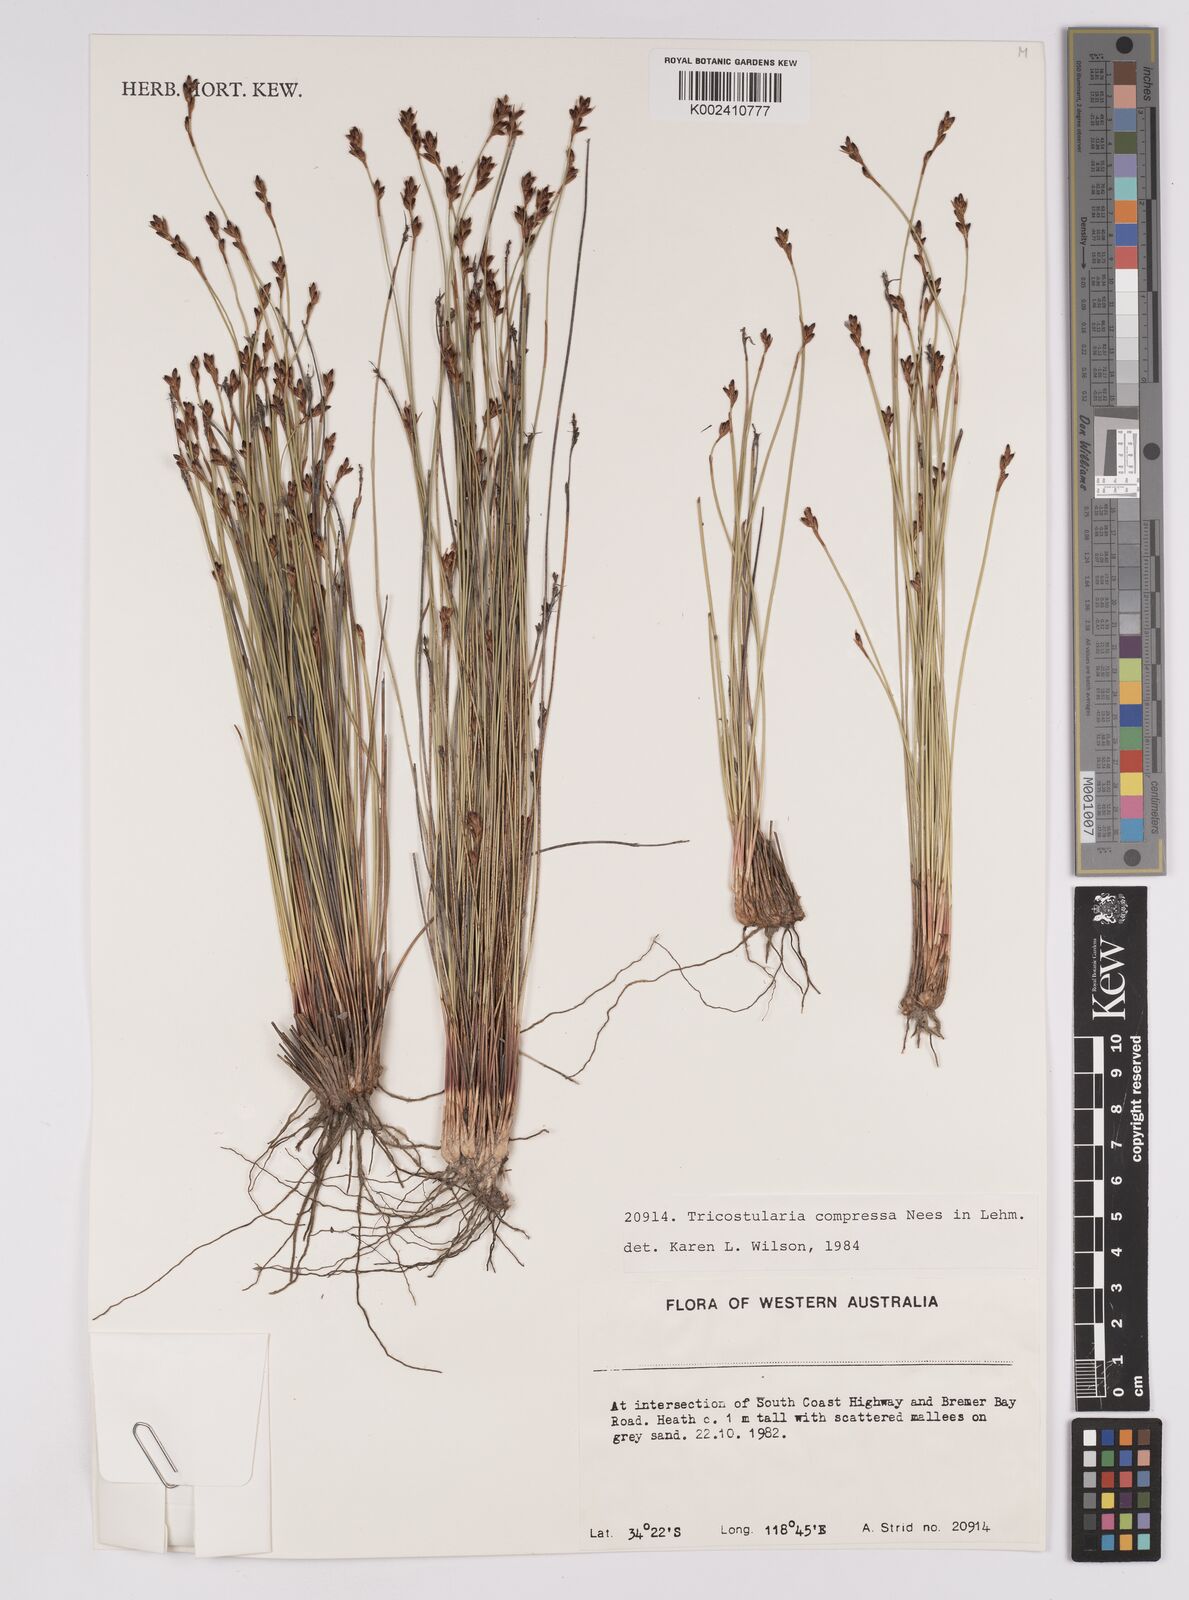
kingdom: Plantae
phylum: Tracheophyta
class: Liliopsida
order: Poales
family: Cyperaceae
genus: Tricostularia
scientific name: Tricostularia compressa
